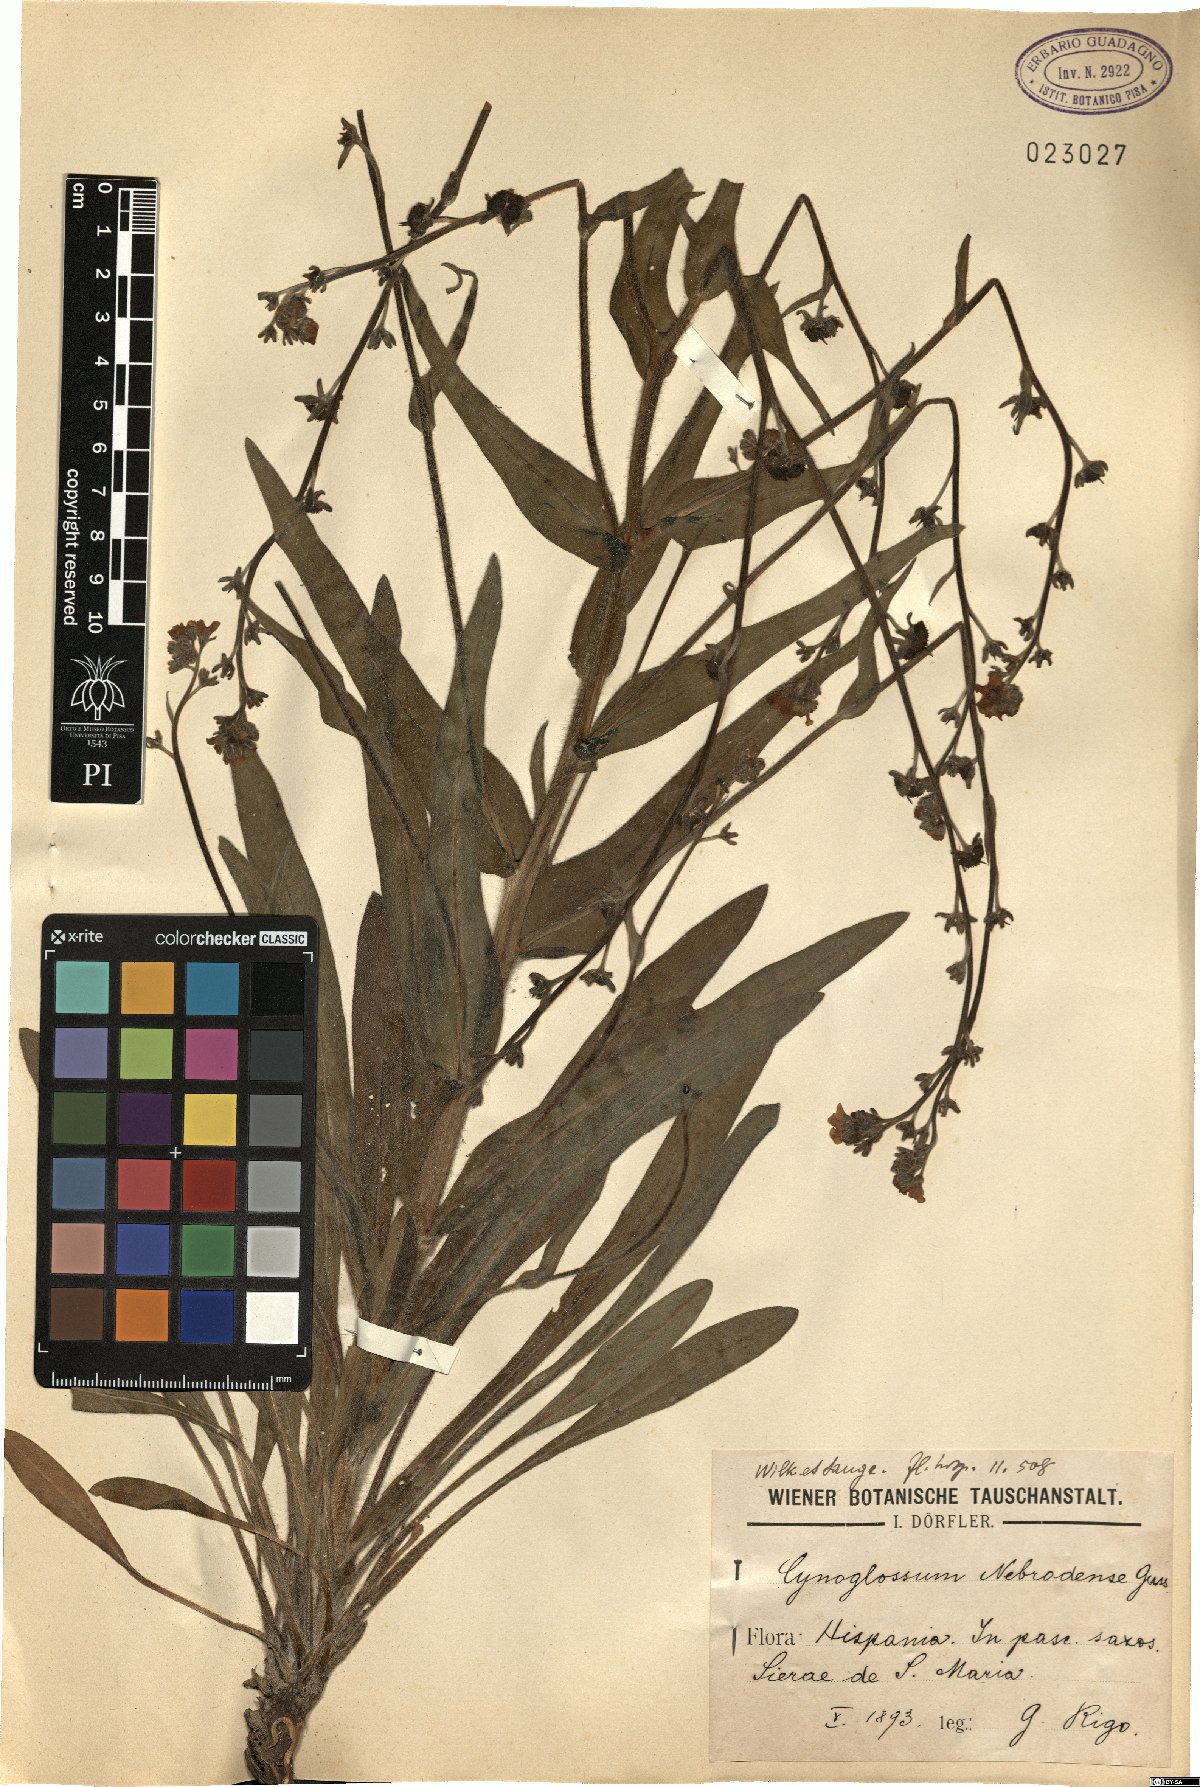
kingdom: Plantae
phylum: Tracheophyta
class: Magnoliopsida
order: Boraginales
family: Boraginaceae
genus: Cynoglossum
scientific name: Cynoglossum nebrodense
